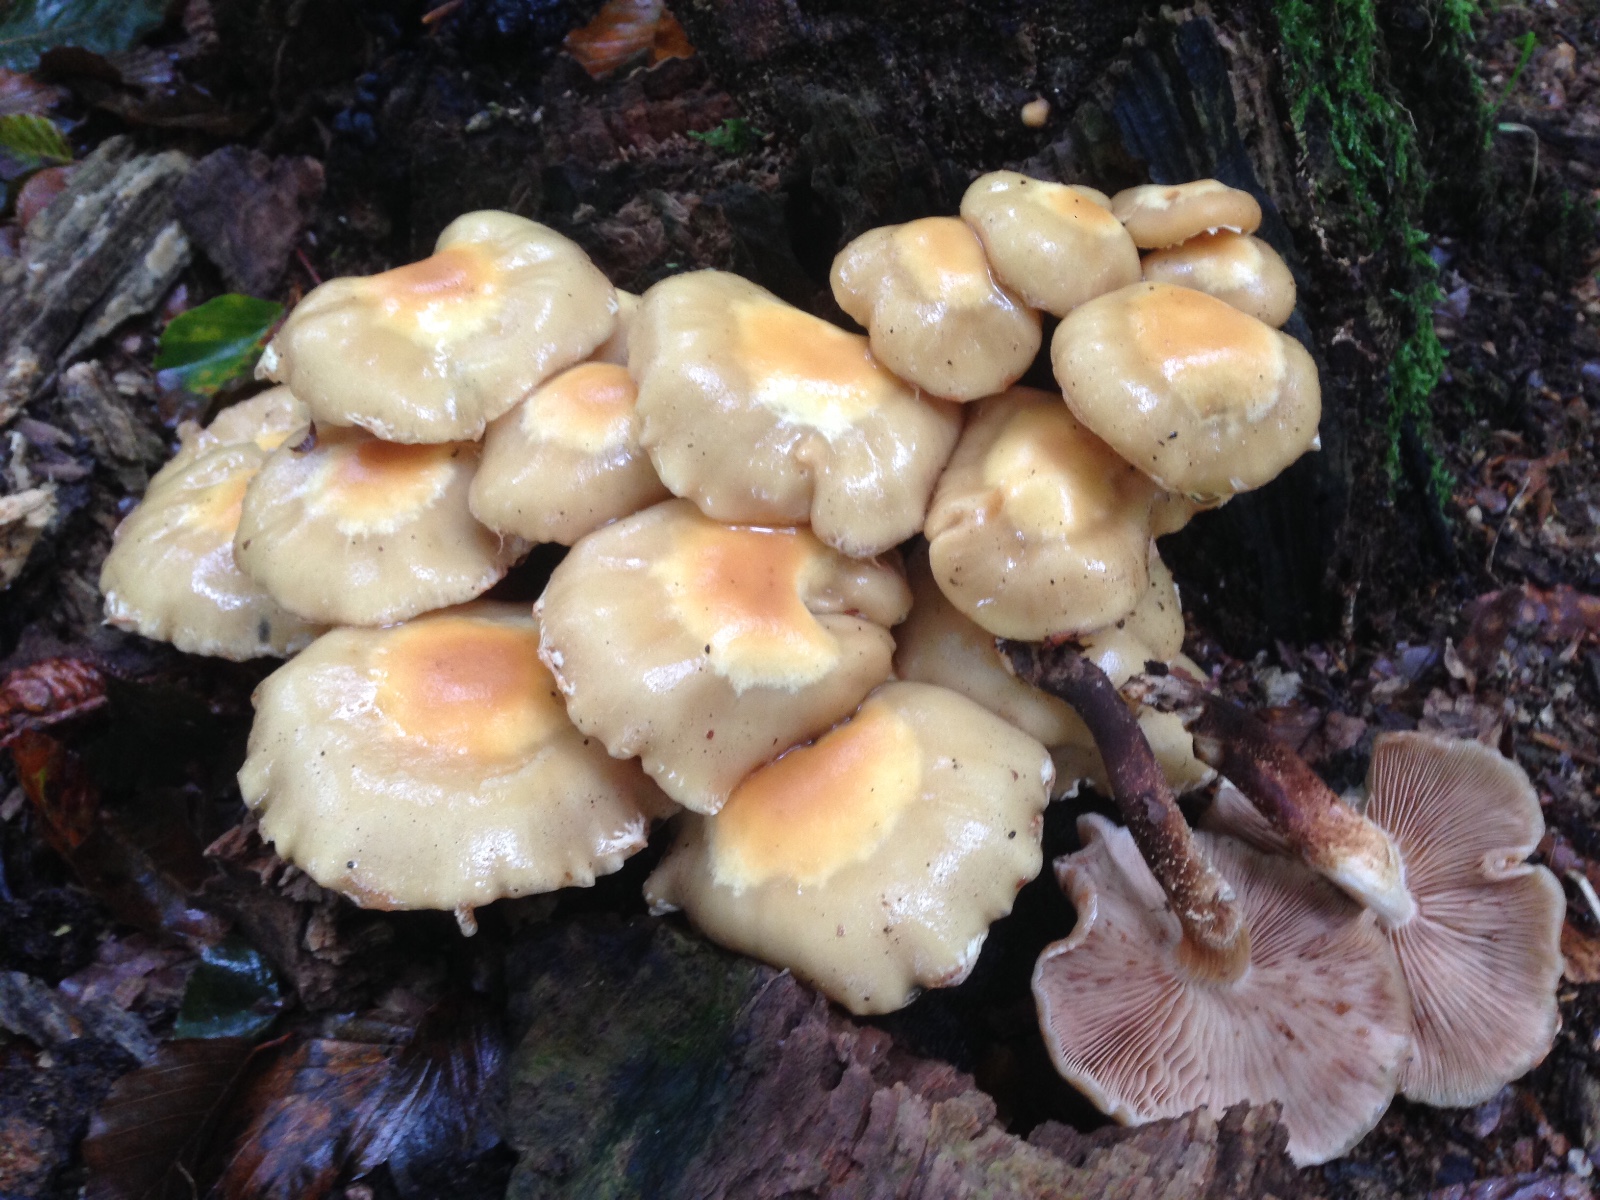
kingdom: Fungi
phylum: Basidiomycota
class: Agaricomycetes
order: Agaricales
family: Strophariaceae
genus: Kuehneromyces
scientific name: Kuehneromyces mutabilis
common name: foranderlig skælhat
